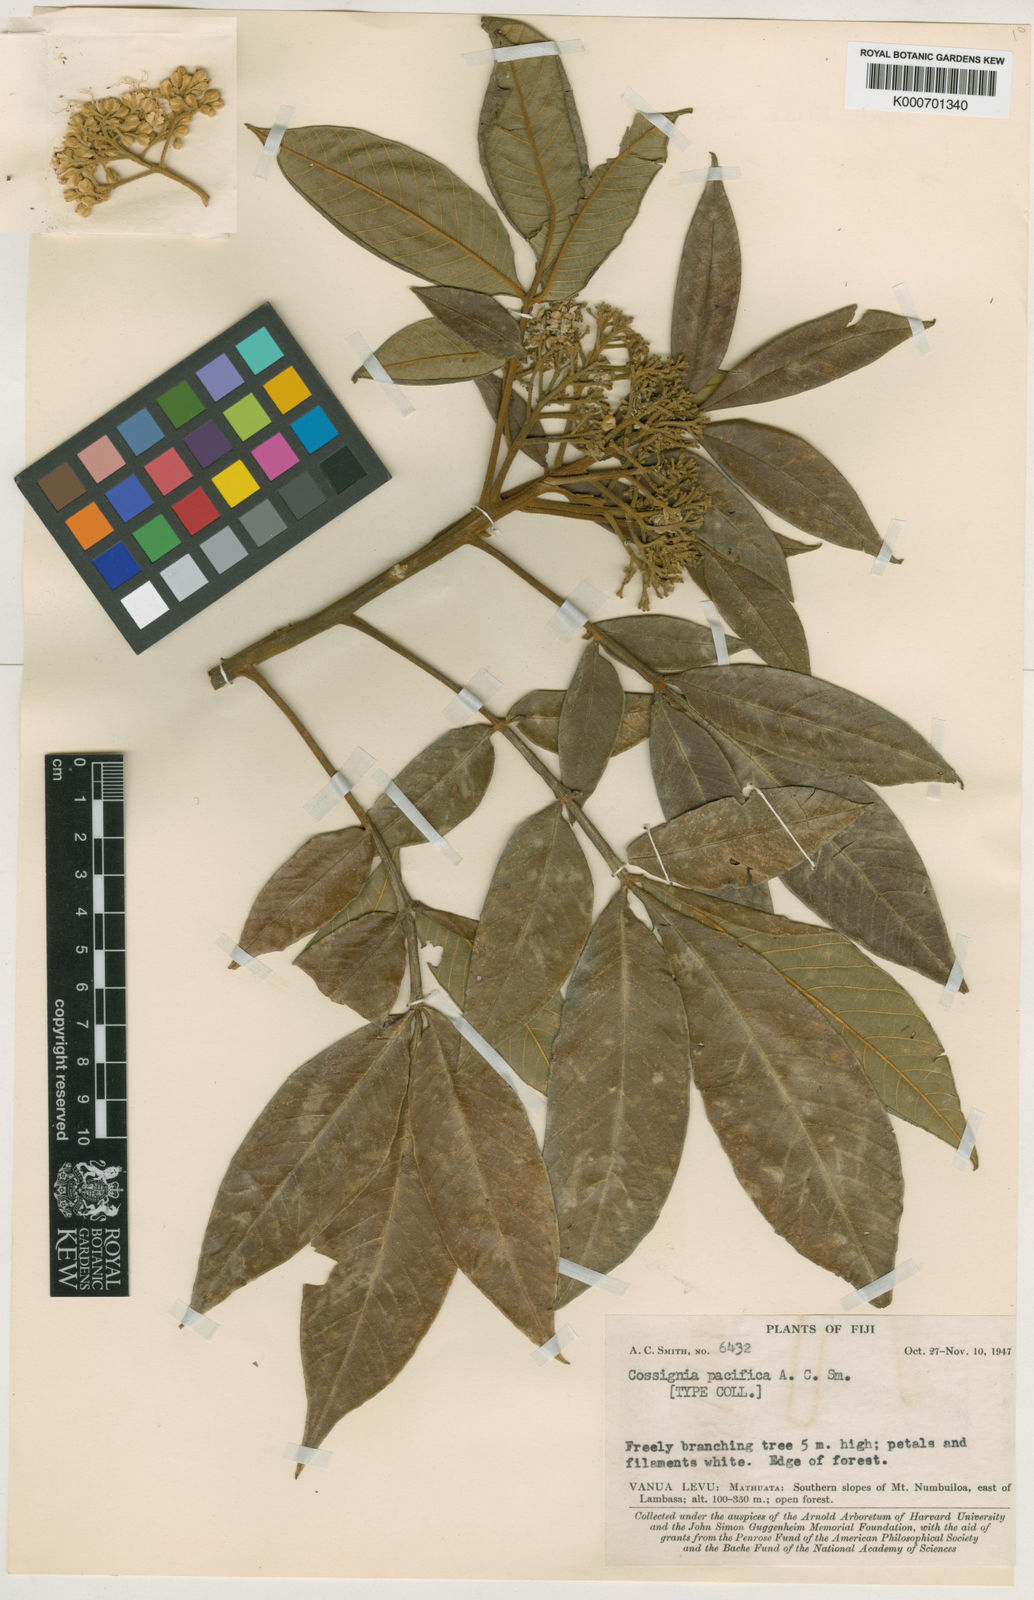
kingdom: Plantae
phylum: Tracheophyta
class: Magnoliopsida
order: Sapindales
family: Sapindaceae
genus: Cossinia
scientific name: Cossinia pacifica
